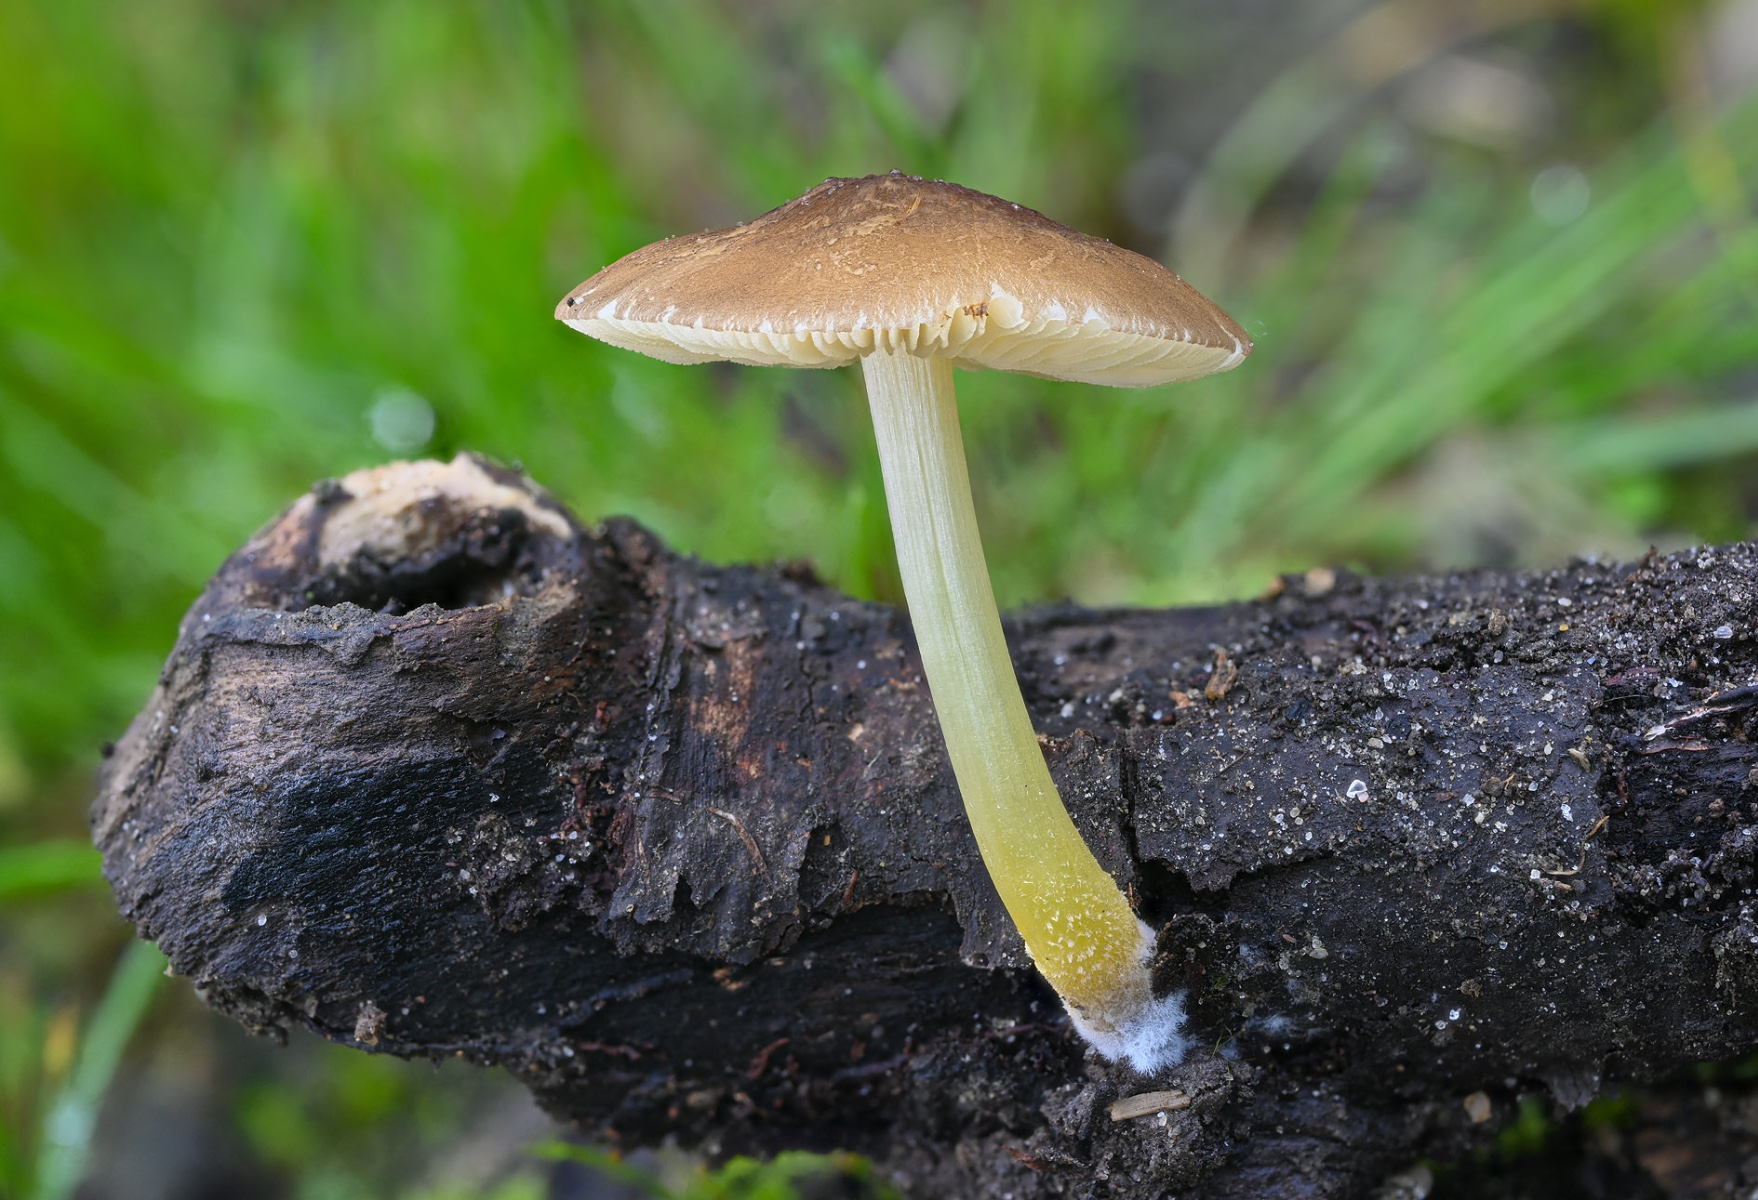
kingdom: Fungi
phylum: Basidiomycota
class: Agaricomycetes
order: Agaricales
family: Pluteaceae
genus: Pluteus
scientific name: Pluteus romellii
